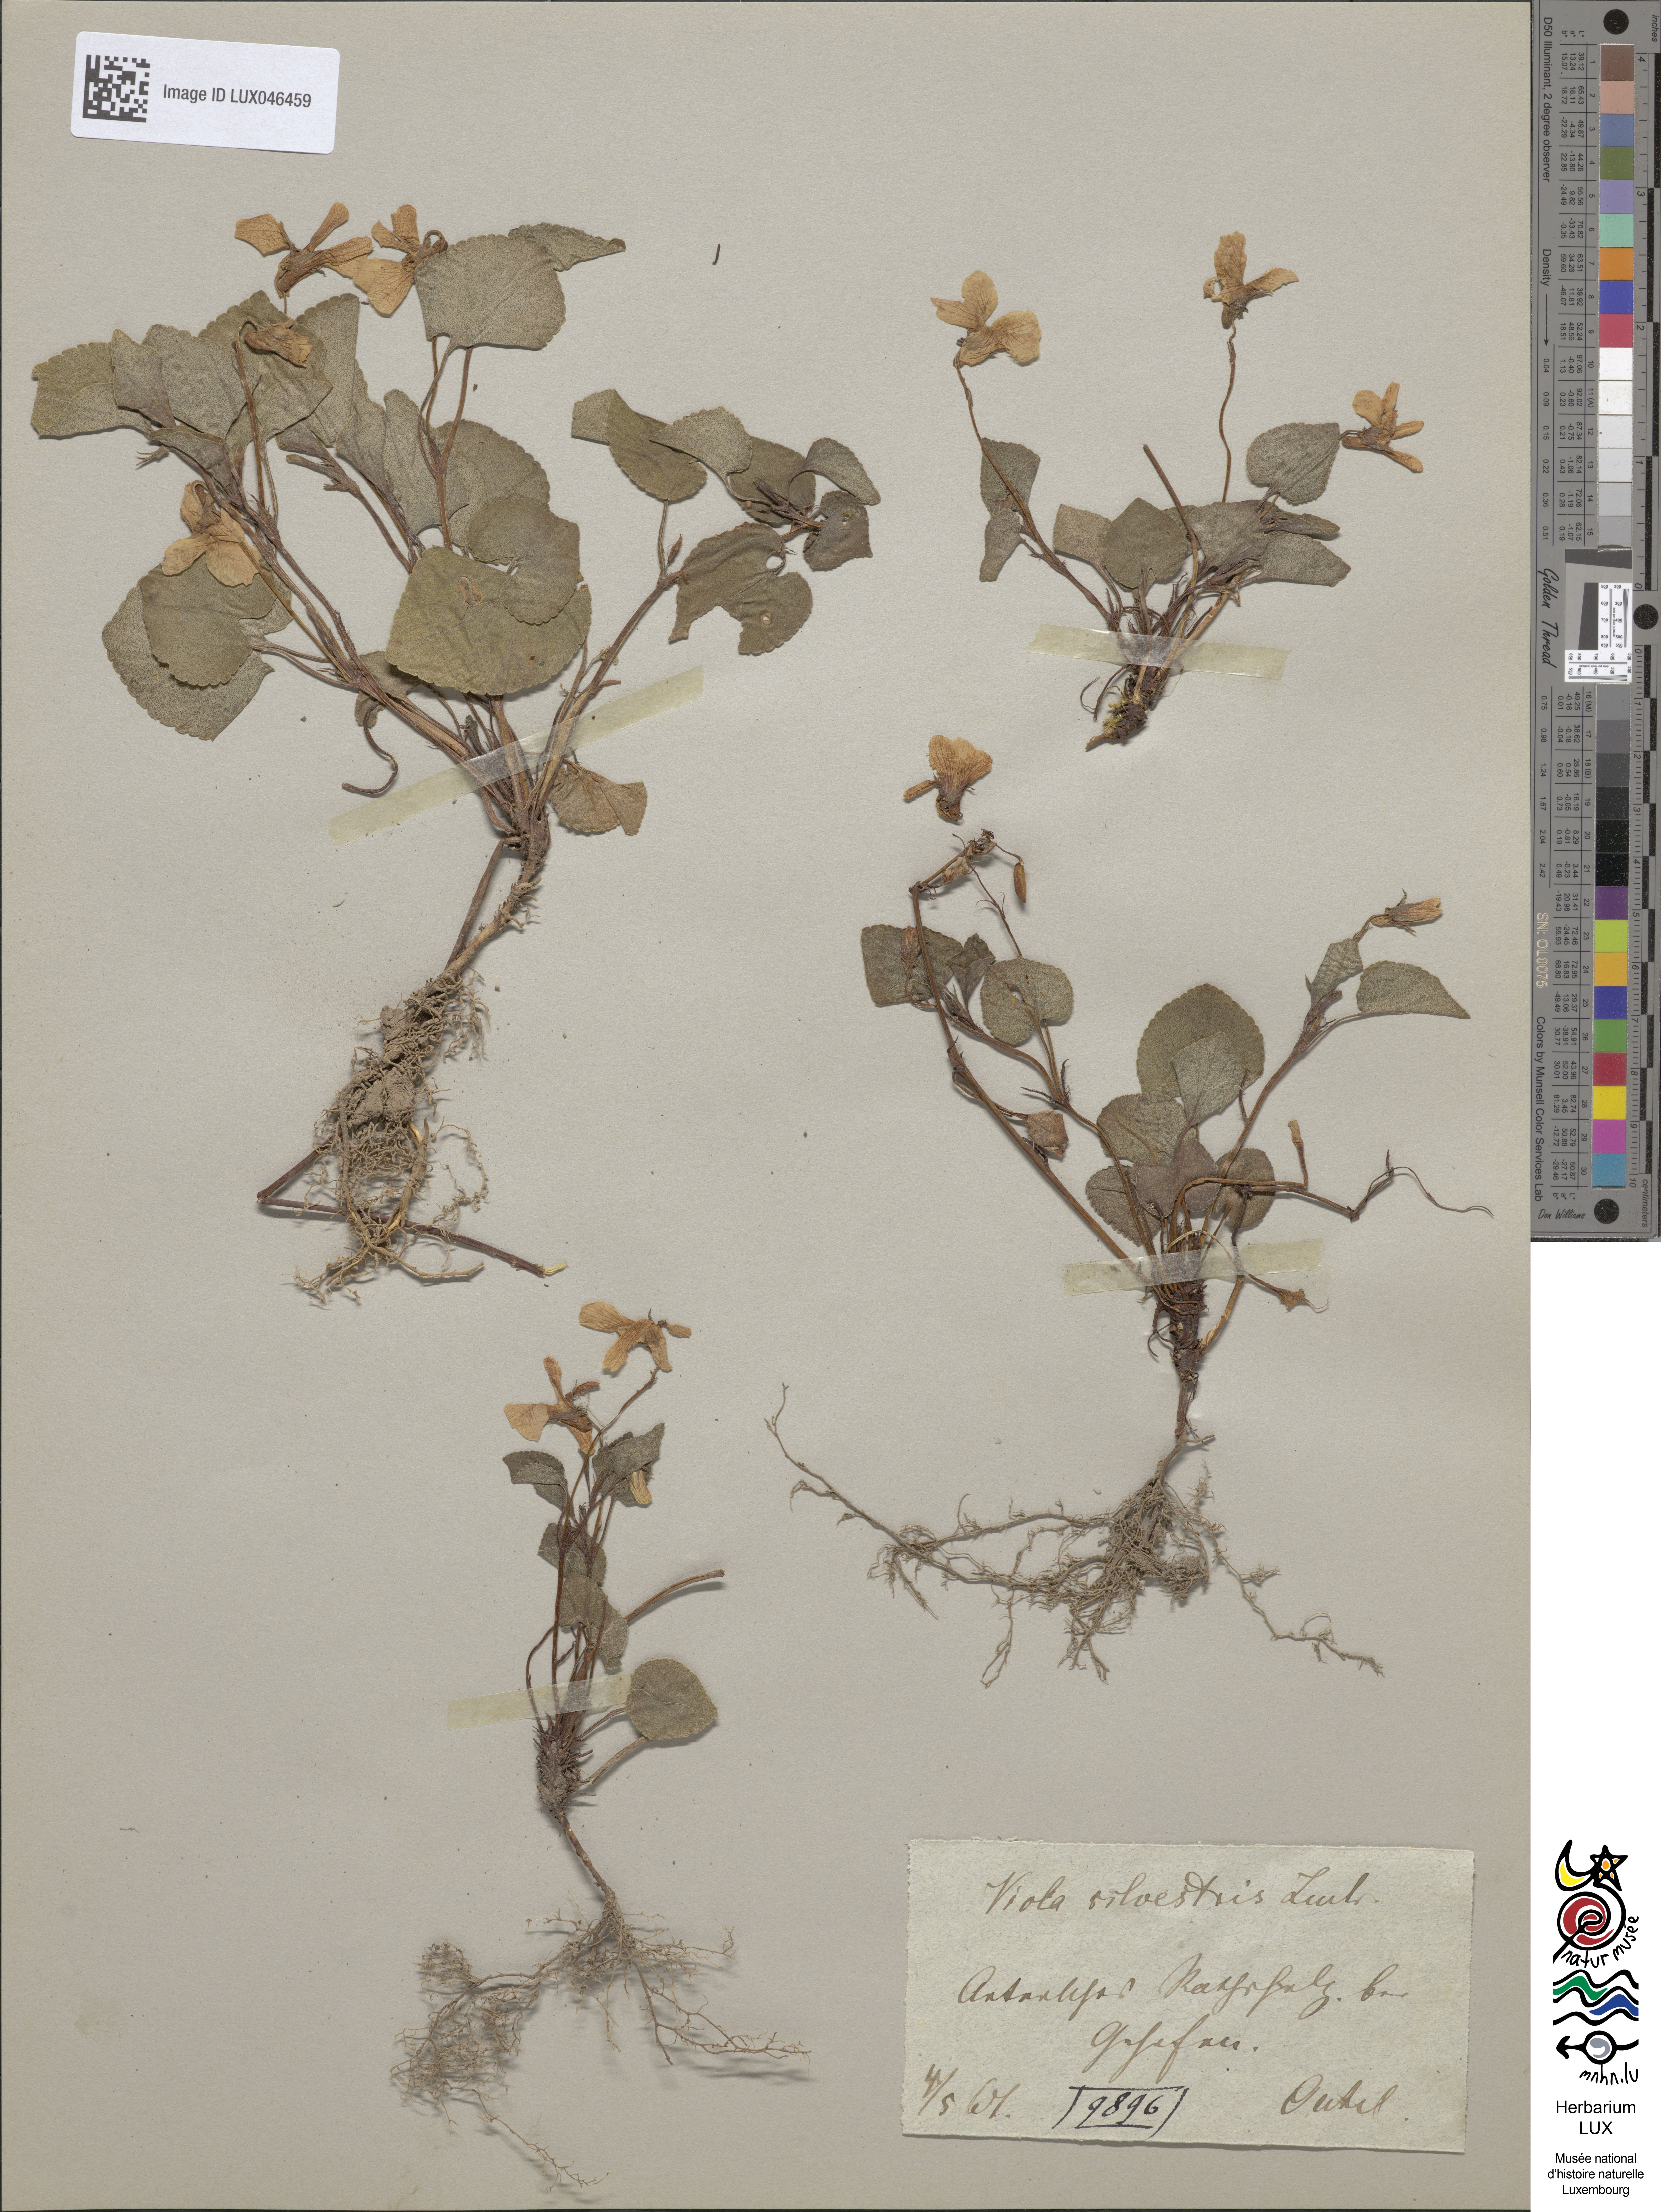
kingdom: Plantae
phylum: Tracheophyta
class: Magnoliopsida
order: Malpighiales
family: Violaceae
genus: Viola
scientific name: Viola reichenbachiana
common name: Early dog-violet
